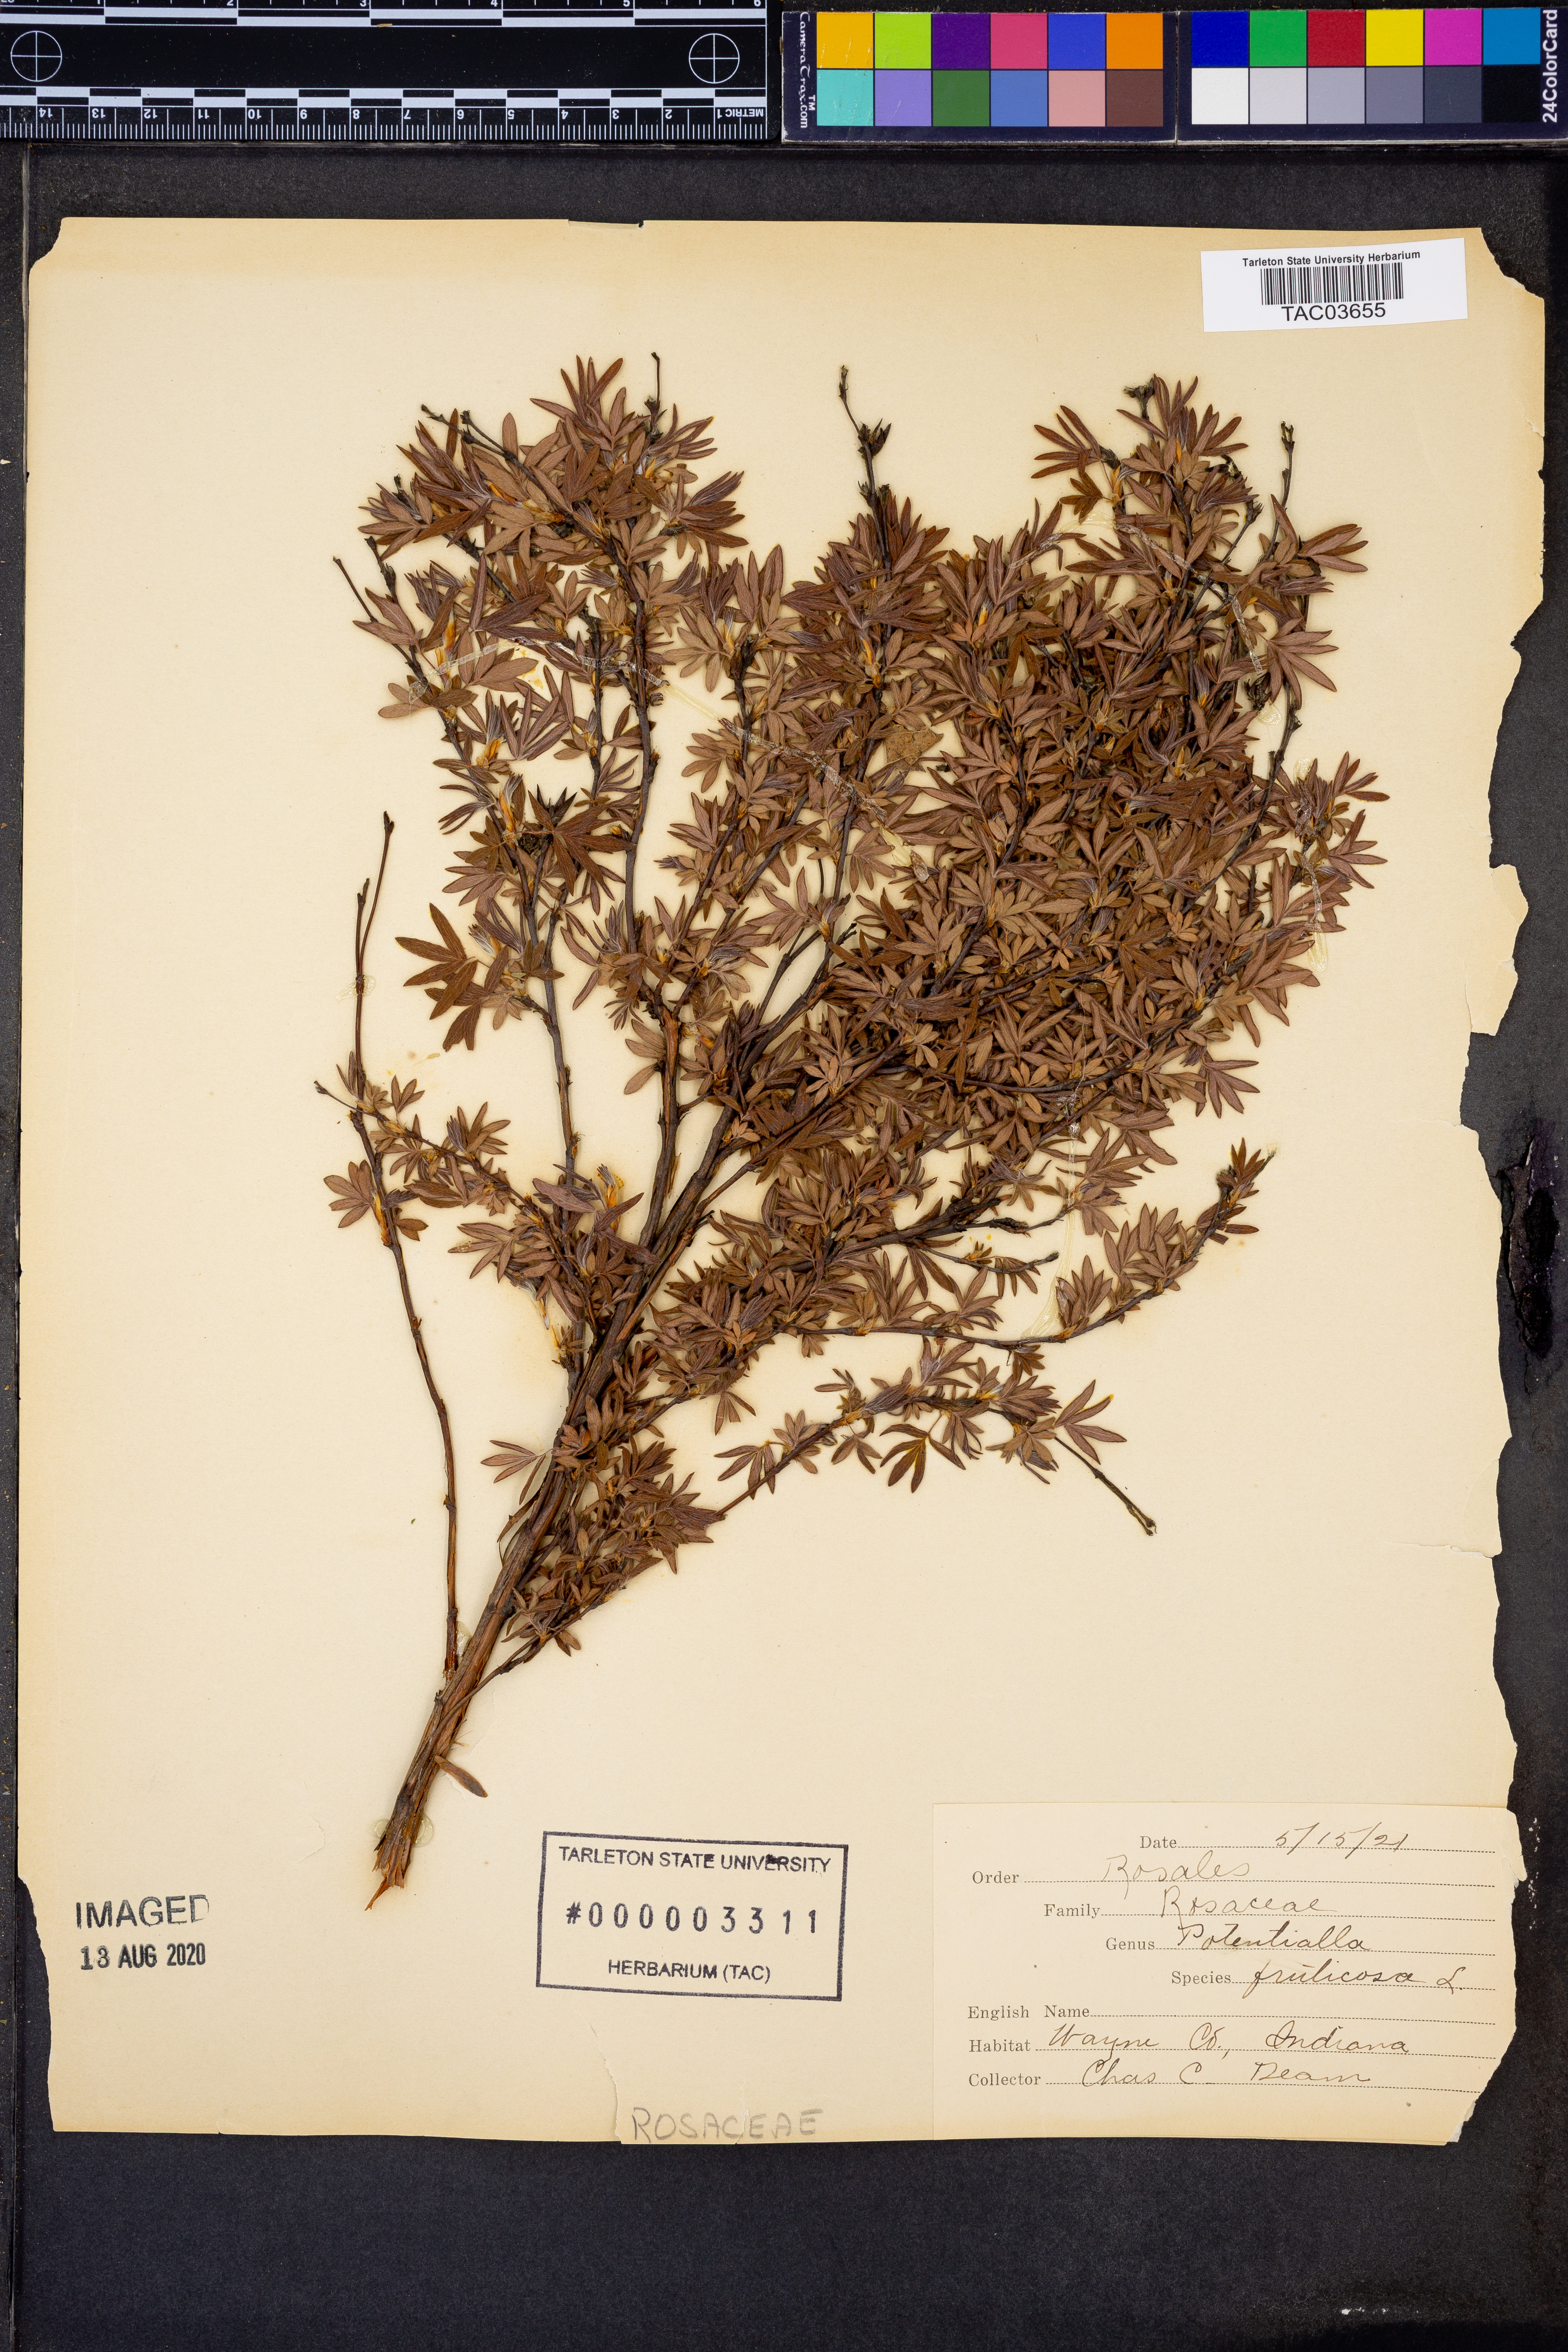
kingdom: Plantae
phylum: Tracheophyta
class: Magnoliopsida
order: Rosales
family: Rosaceae
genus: Dasiphora
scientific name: Dasiphora fruticosa
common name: Shrubby cinquefoil
